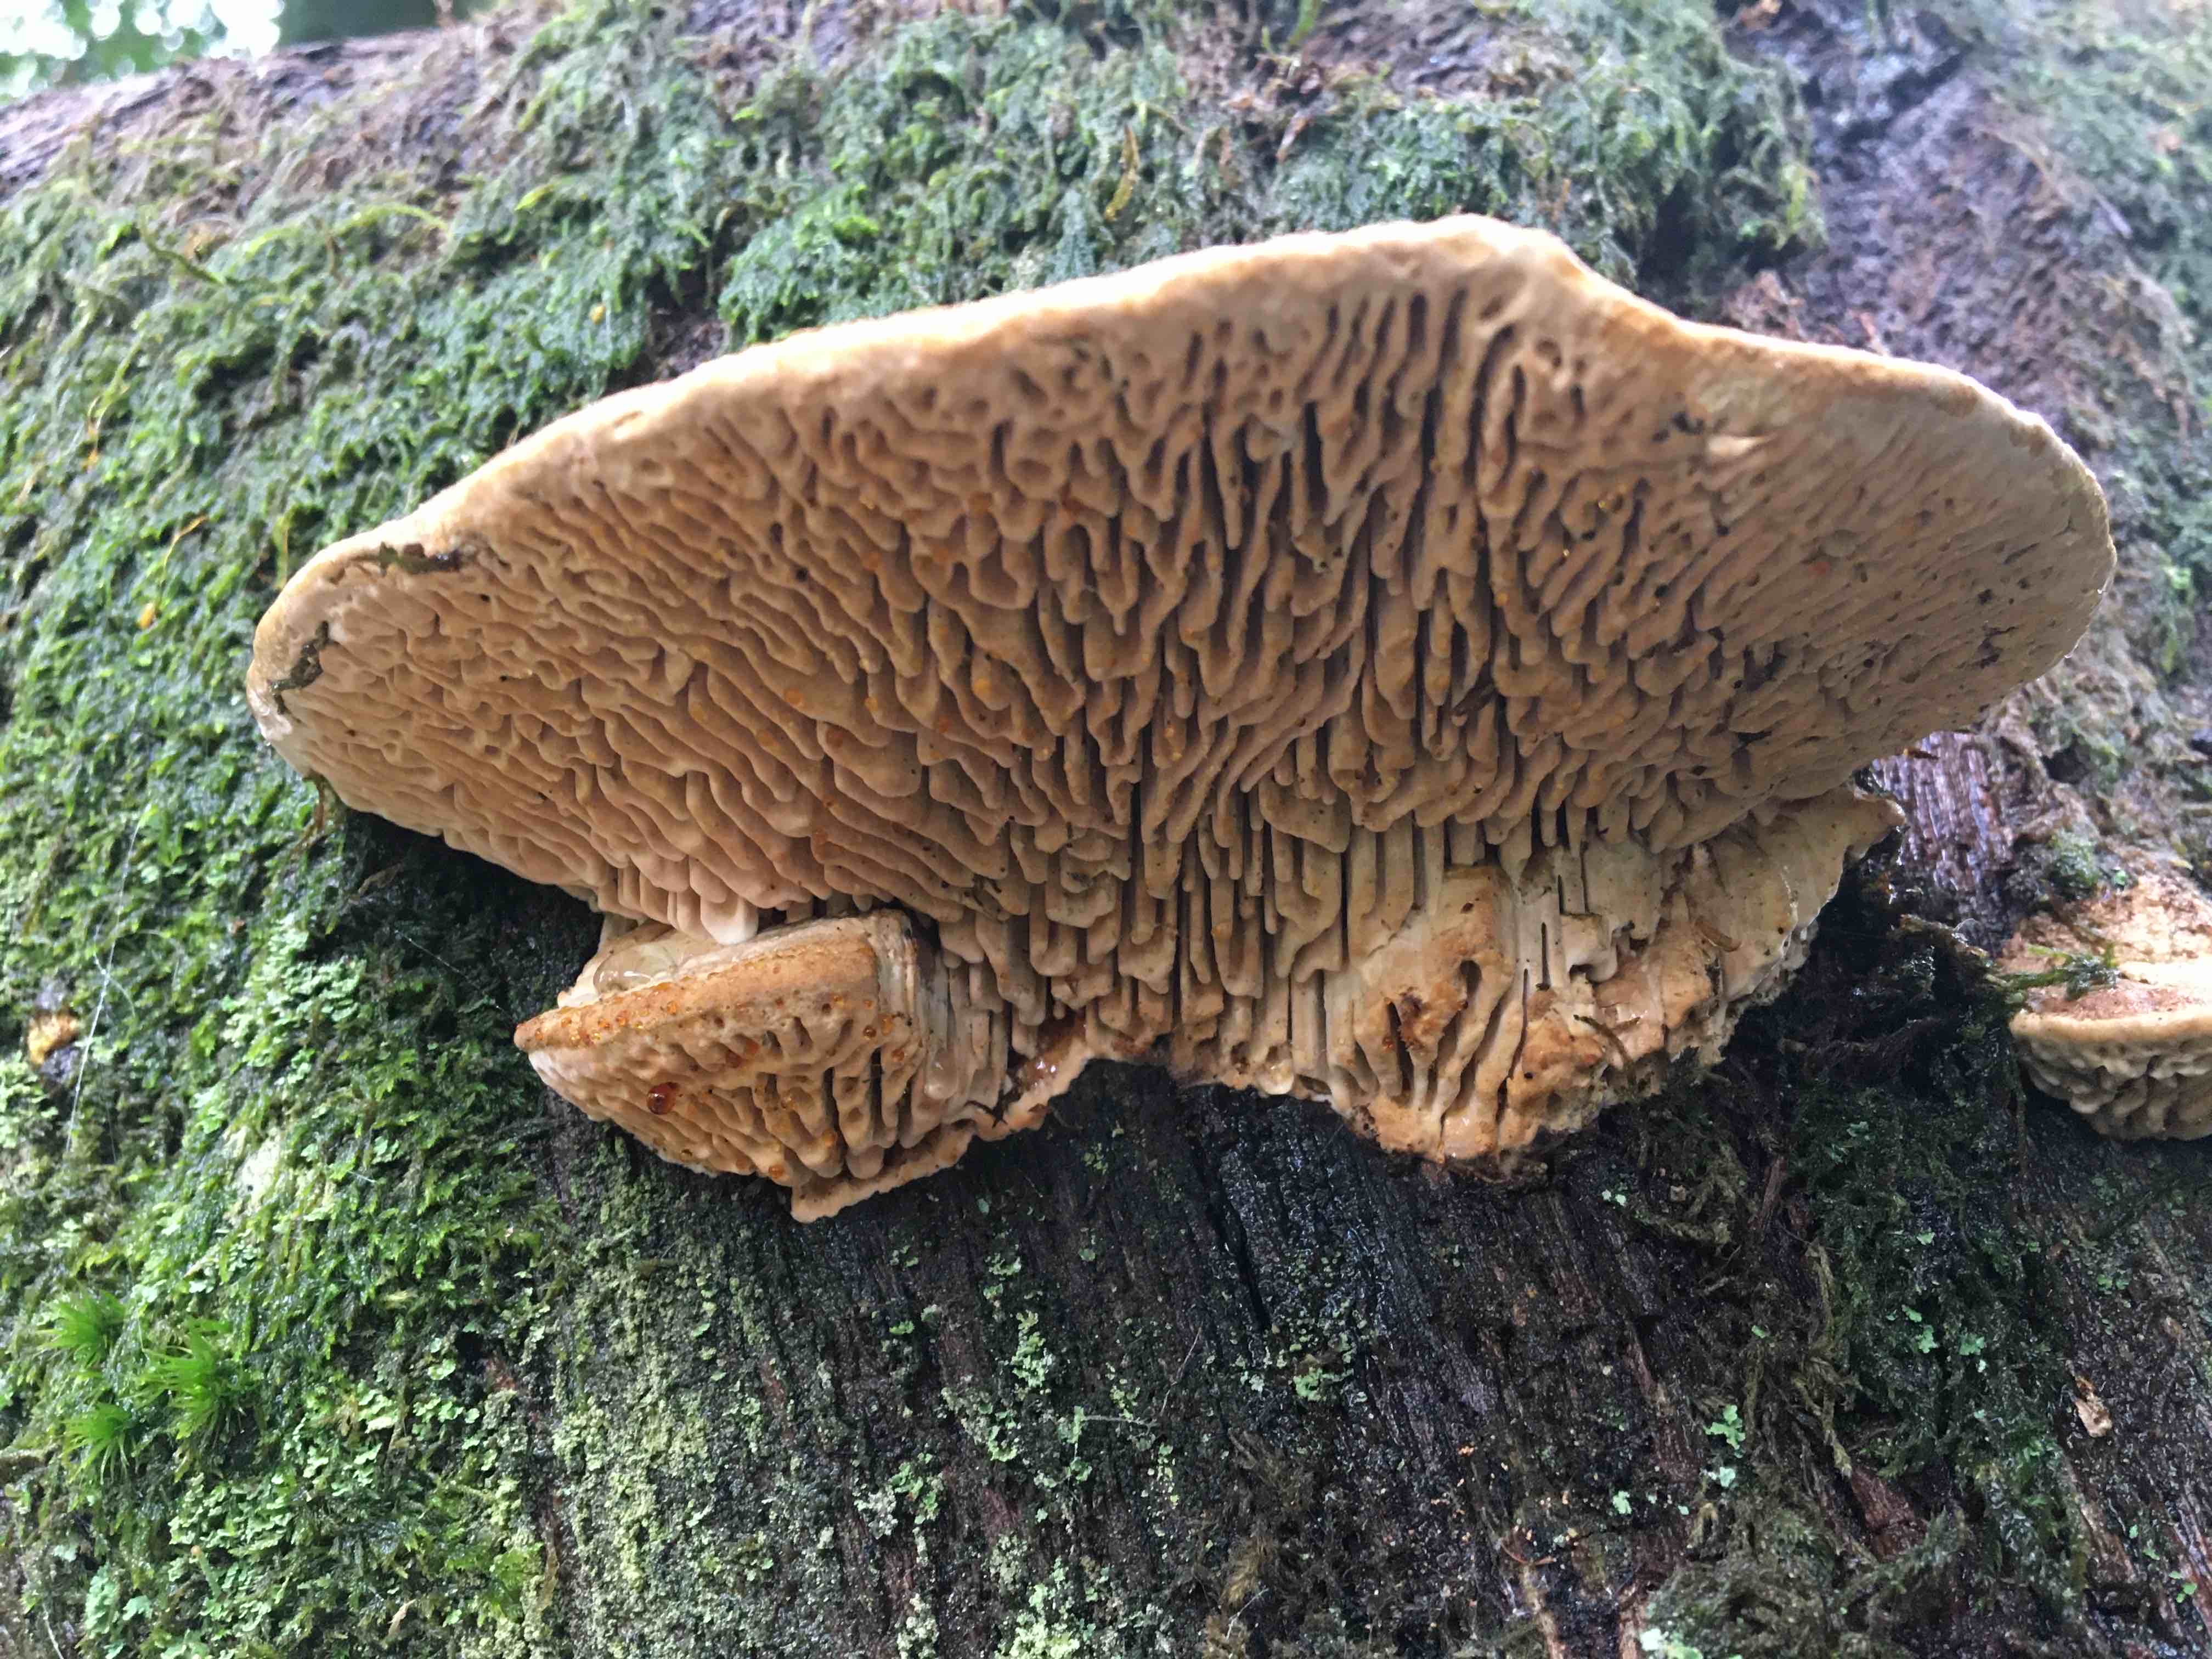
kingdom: Fungi
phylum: Basidiomycota
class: Agaricomycetes
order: Polyporales
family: Fomitopsidaceae
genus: Daedalea
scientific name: Daedalea quercina
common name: ege-labyrintsvamp
